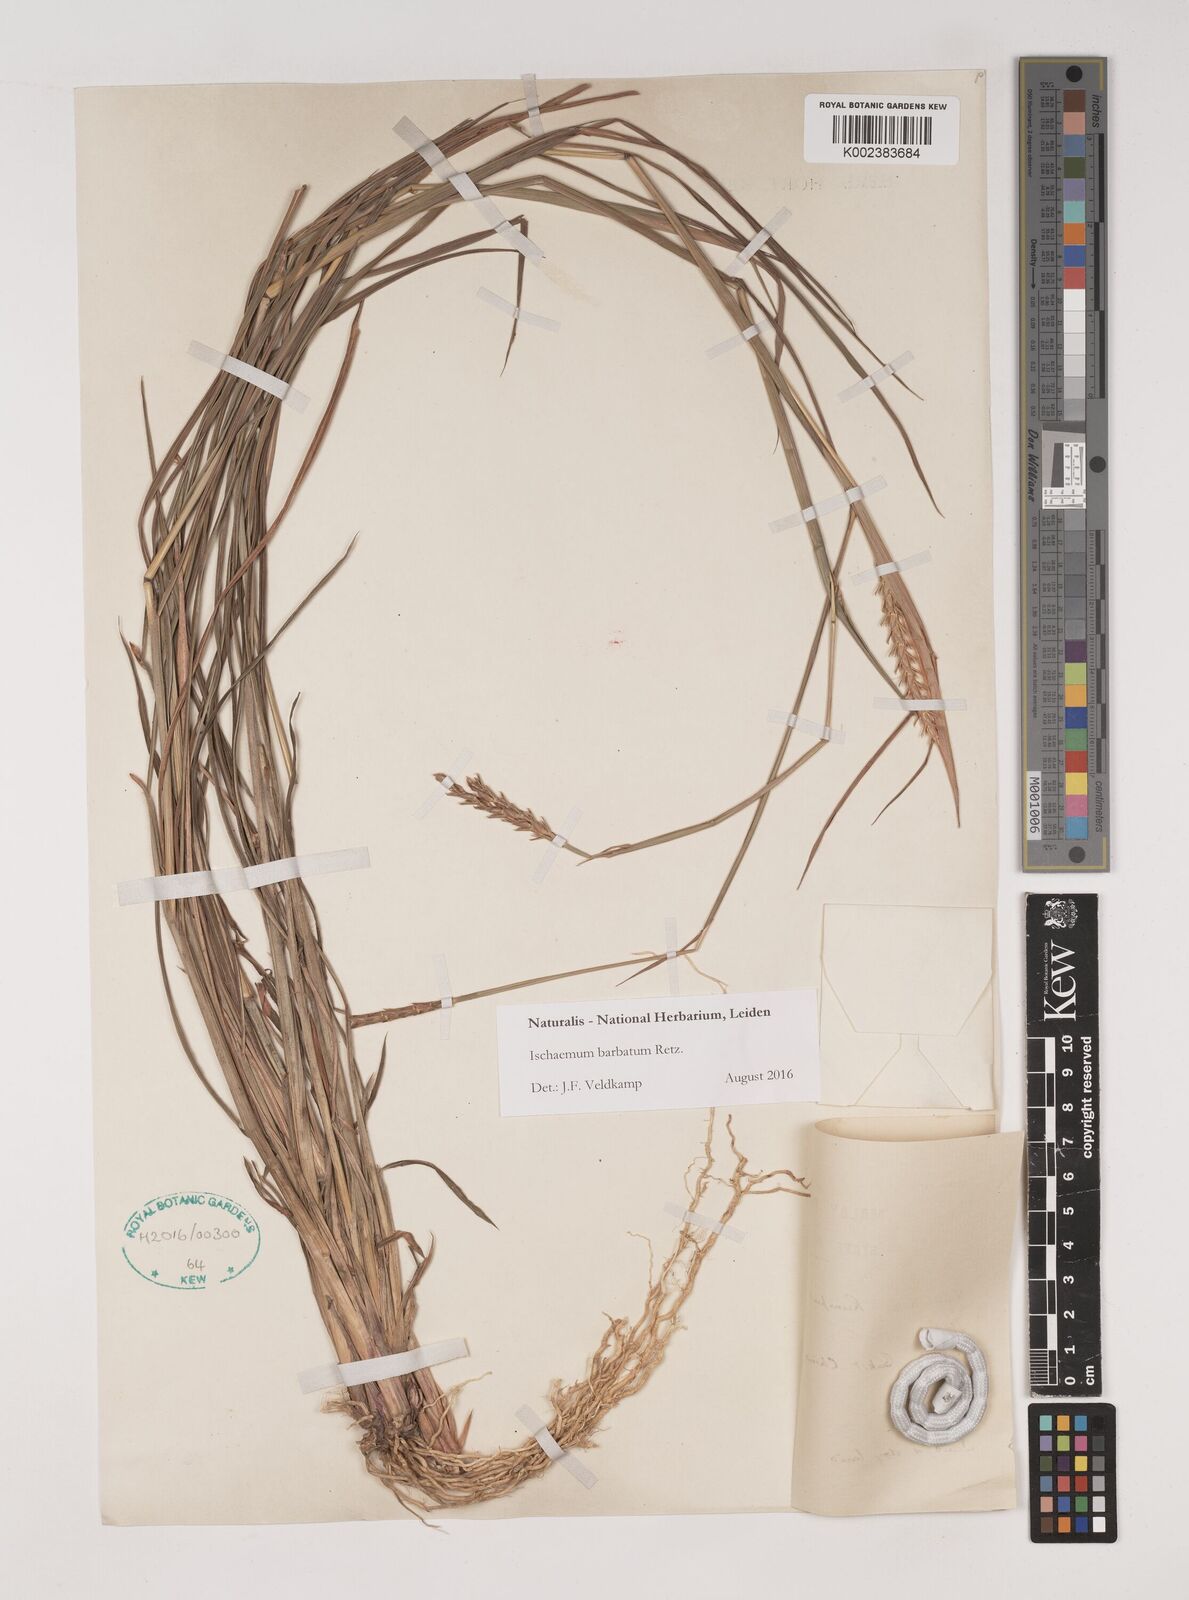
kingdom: Plantae
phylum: Tracheophyta
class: Liliopsida
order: Poales
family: Poaceae
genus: Ischaemum
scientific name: Ischaemum barbatum
